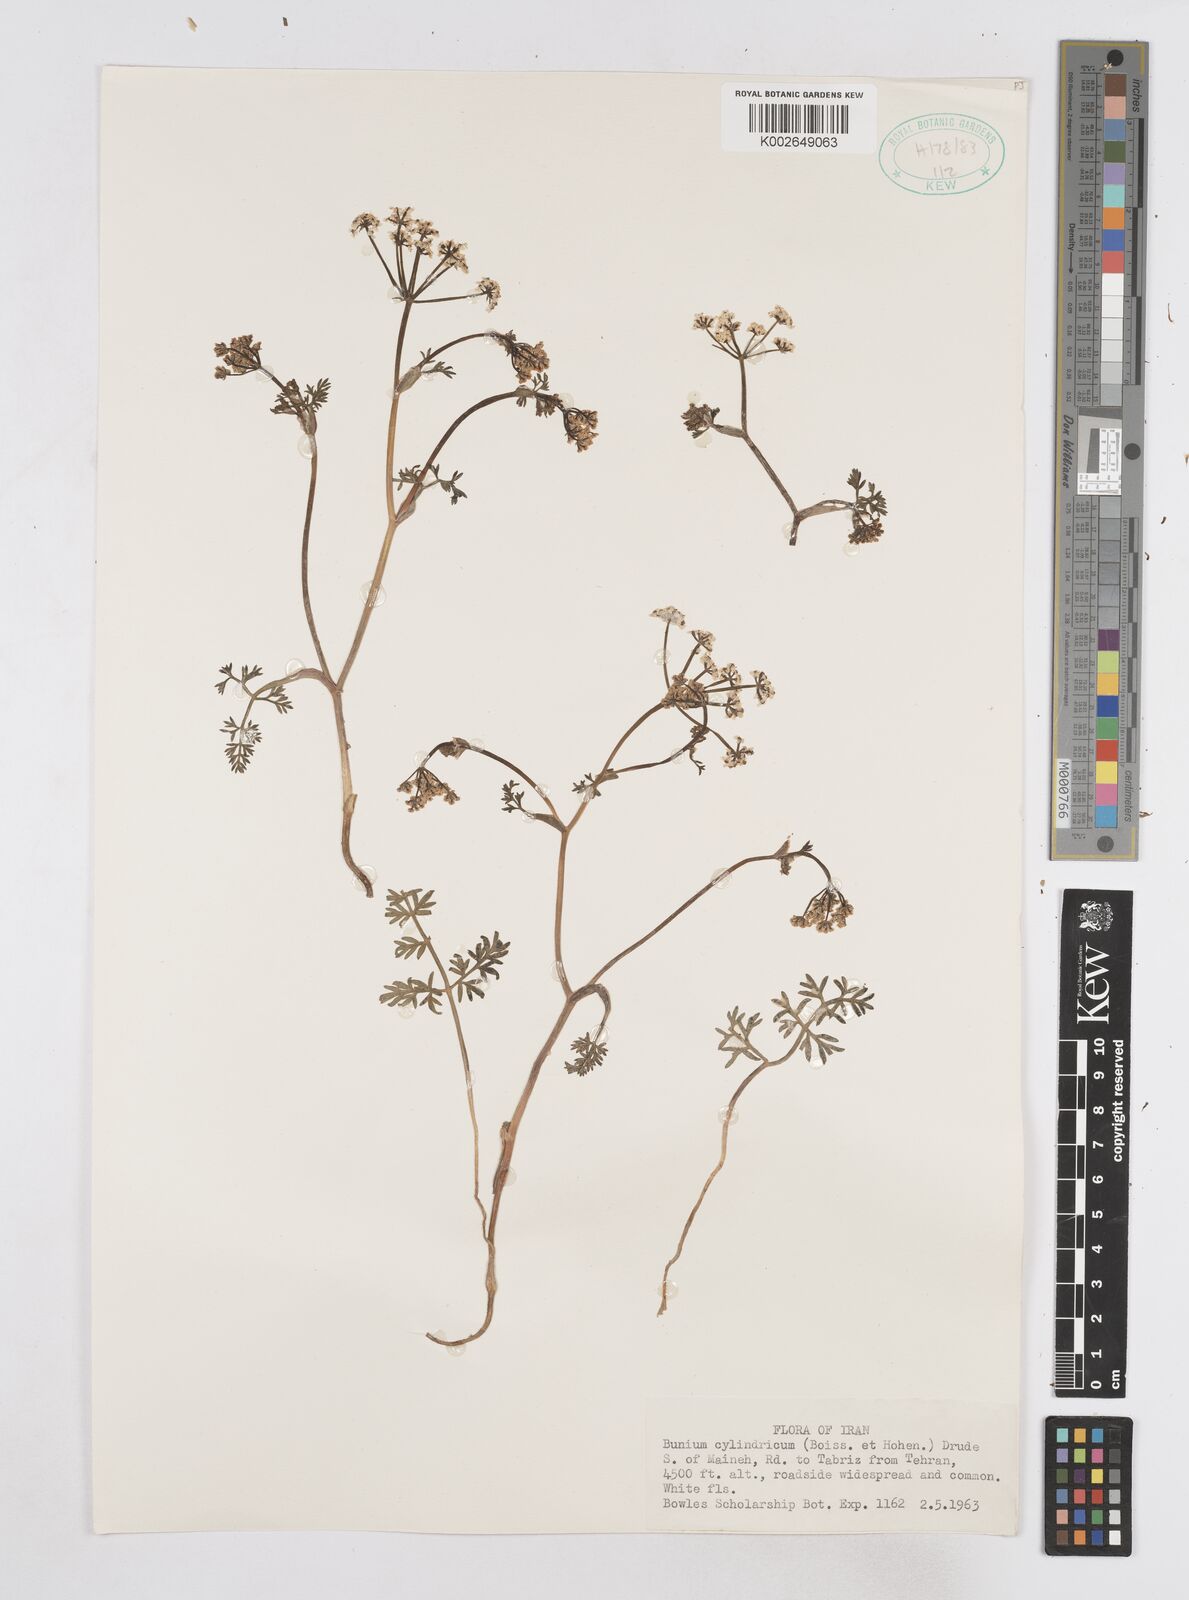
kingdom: Plantae
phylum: Tracheophyta
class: Magnoliopsida
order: Apiales
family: Apiaceae
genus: Elwendia
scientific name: Elwendia cylindrica
